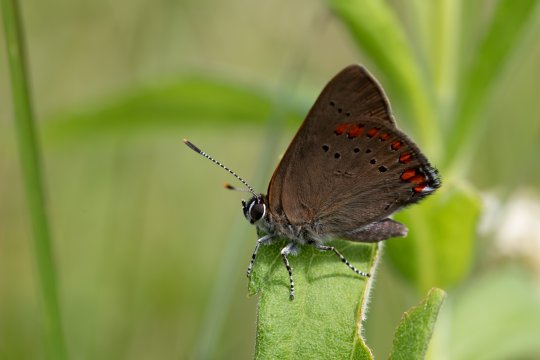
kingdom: Animalia
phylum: Arthropoda
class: Insecta
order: Lepidoptera
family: Lycaenidae
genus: Harkenclenus
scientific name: Harkenclenus titus
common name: Coral Hairstreak
